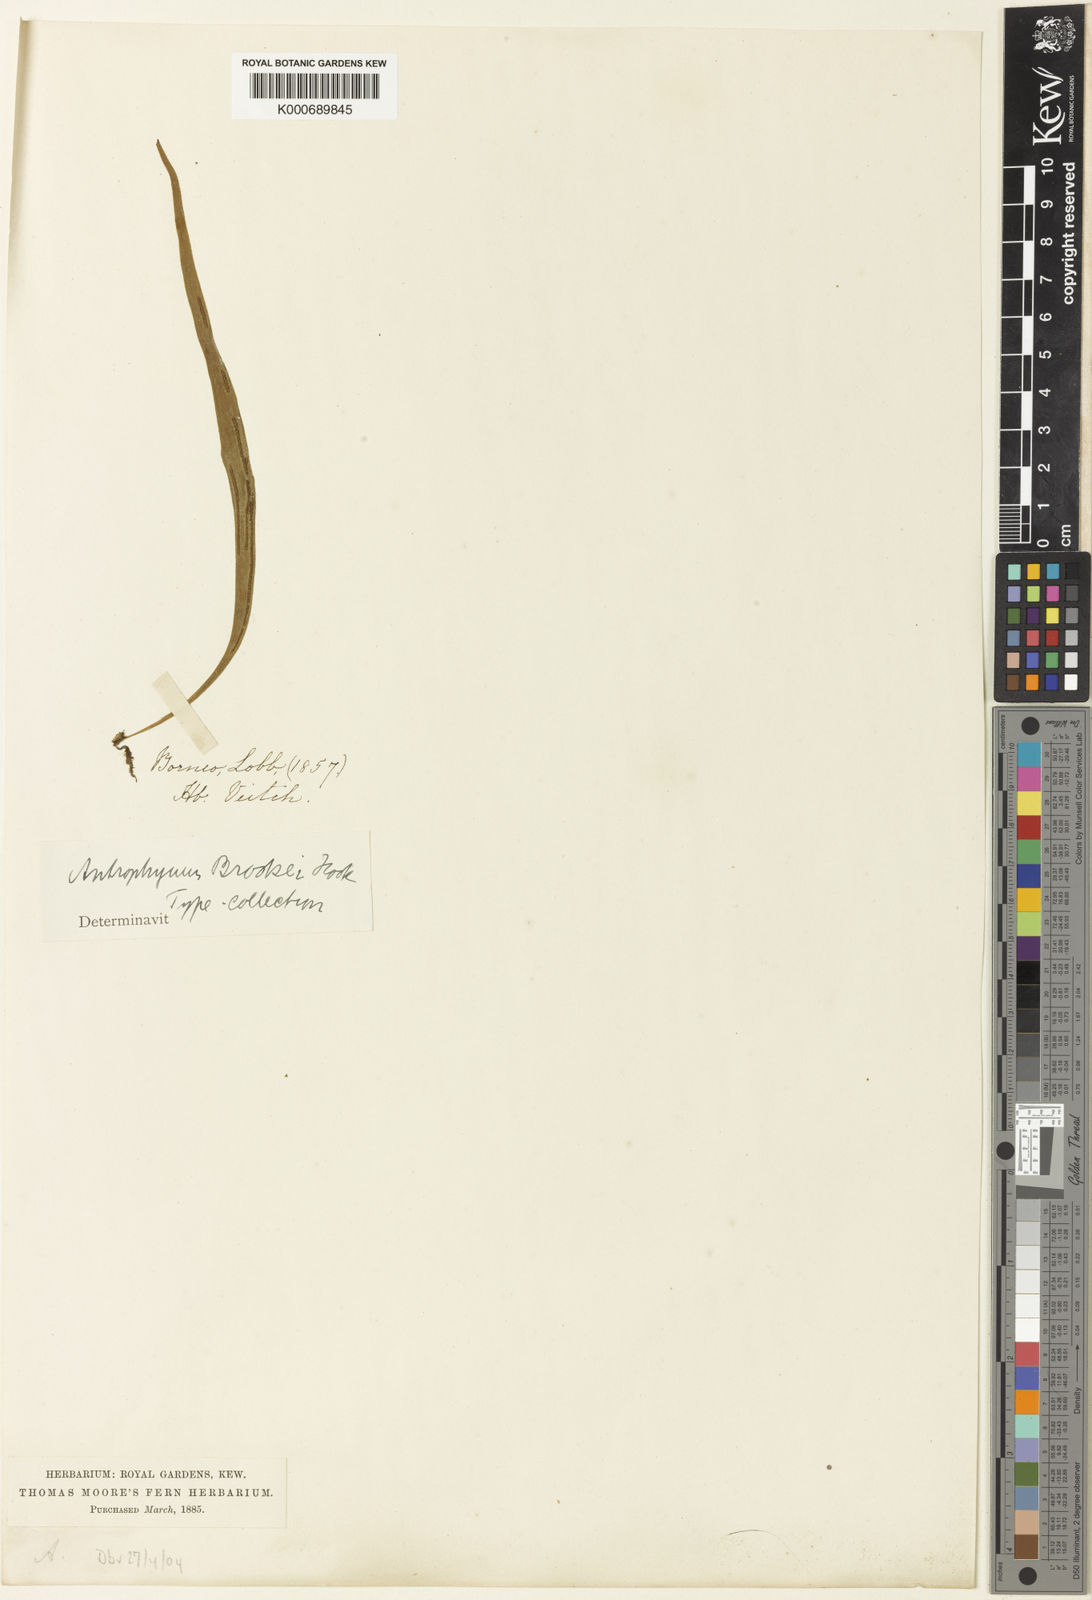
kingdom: Plantae
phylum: Tracheophyta
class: Polypodiopsida
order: Polypodiales
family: Pteridaceae
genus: Antrophyum
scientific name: Antrophyum brookei
